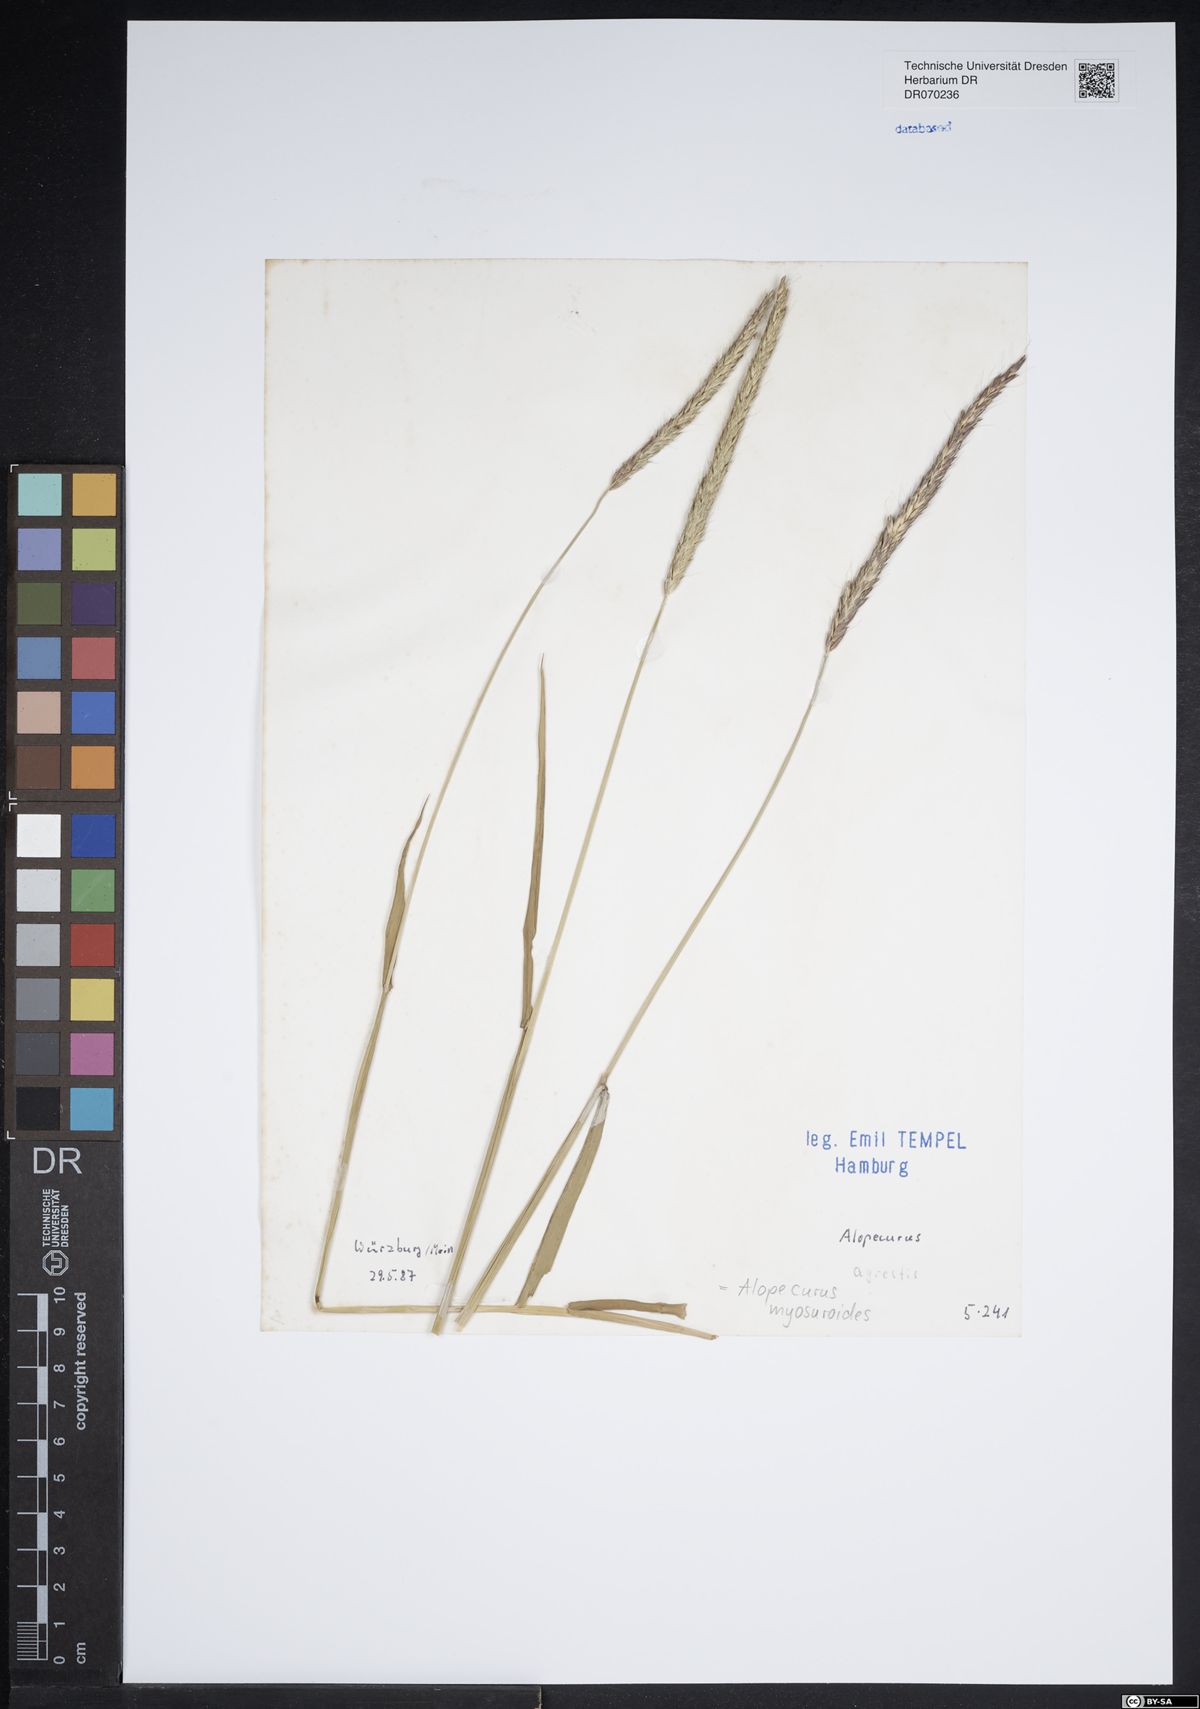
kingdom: Plantae
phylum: Tracheophyta
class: Liliopsida
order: Poales
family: Poaceae
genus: Alopecurus
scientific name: Alopecurus myosuroides
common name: Black-grass
